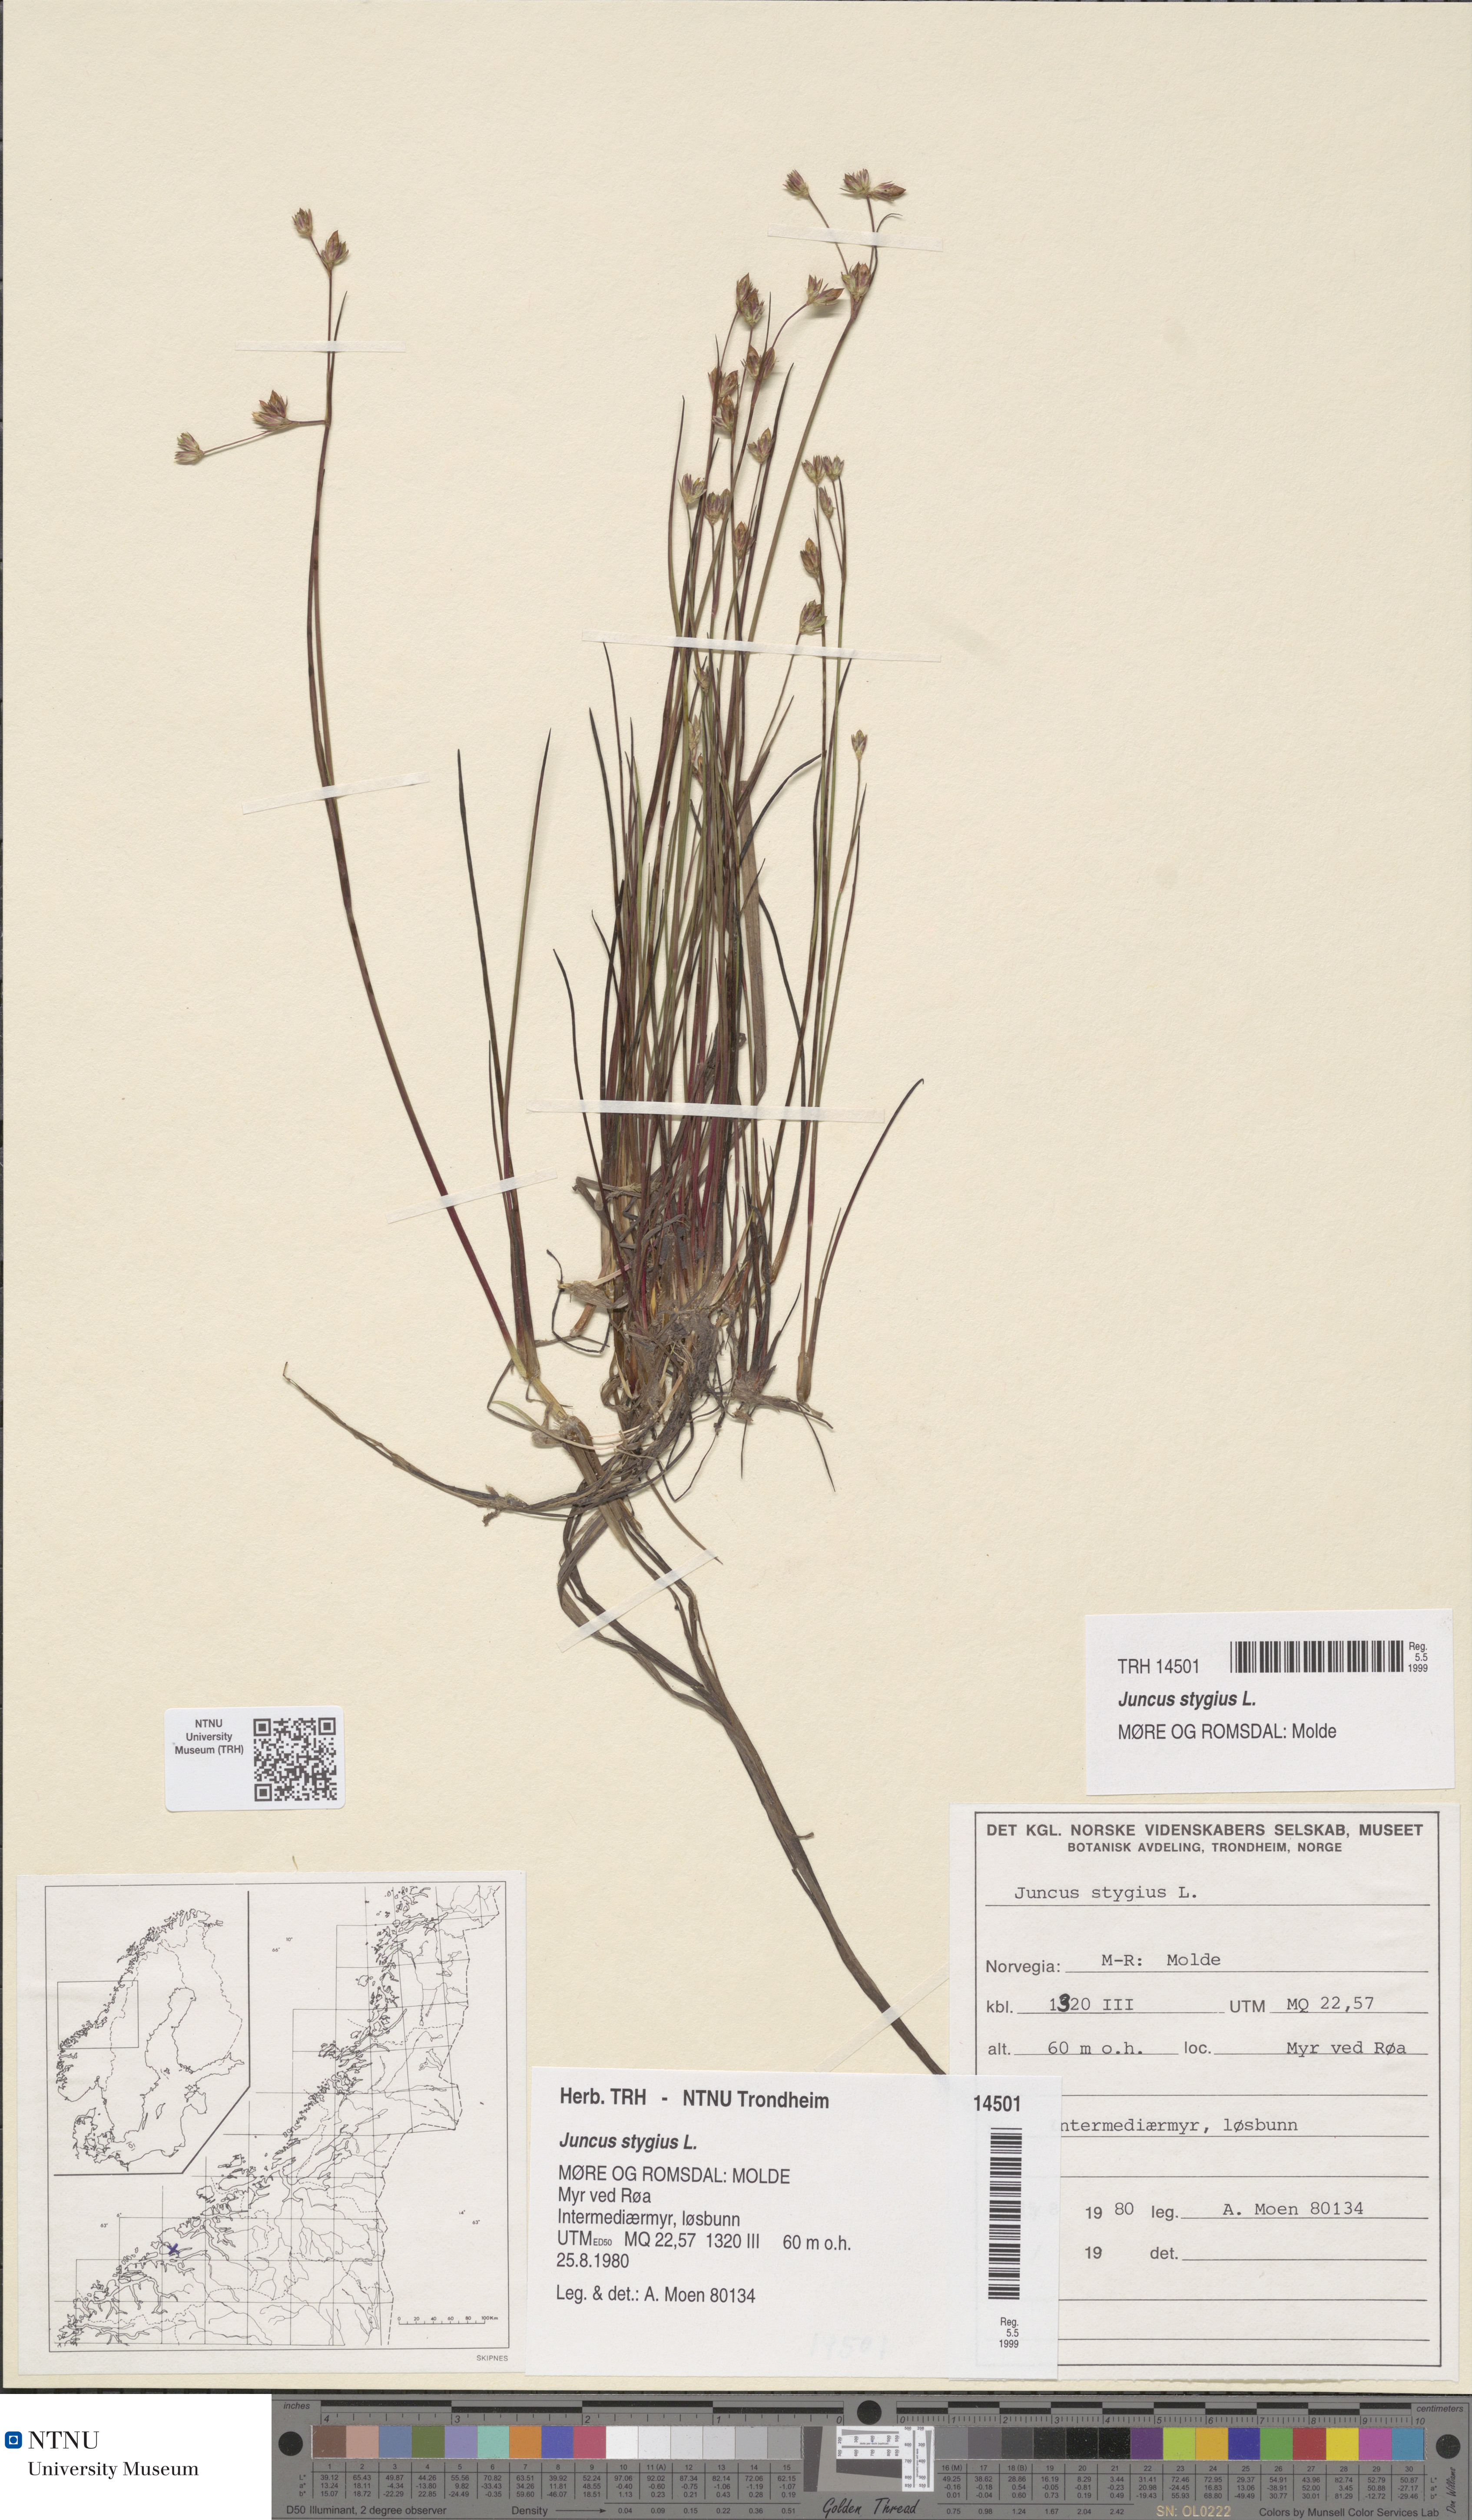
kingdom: Plantae
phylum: Tracheophyta
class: Liliopsida
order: Poales
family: Juncaceae
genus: Juncus
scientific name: Juncus stygius
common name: Bog rush
